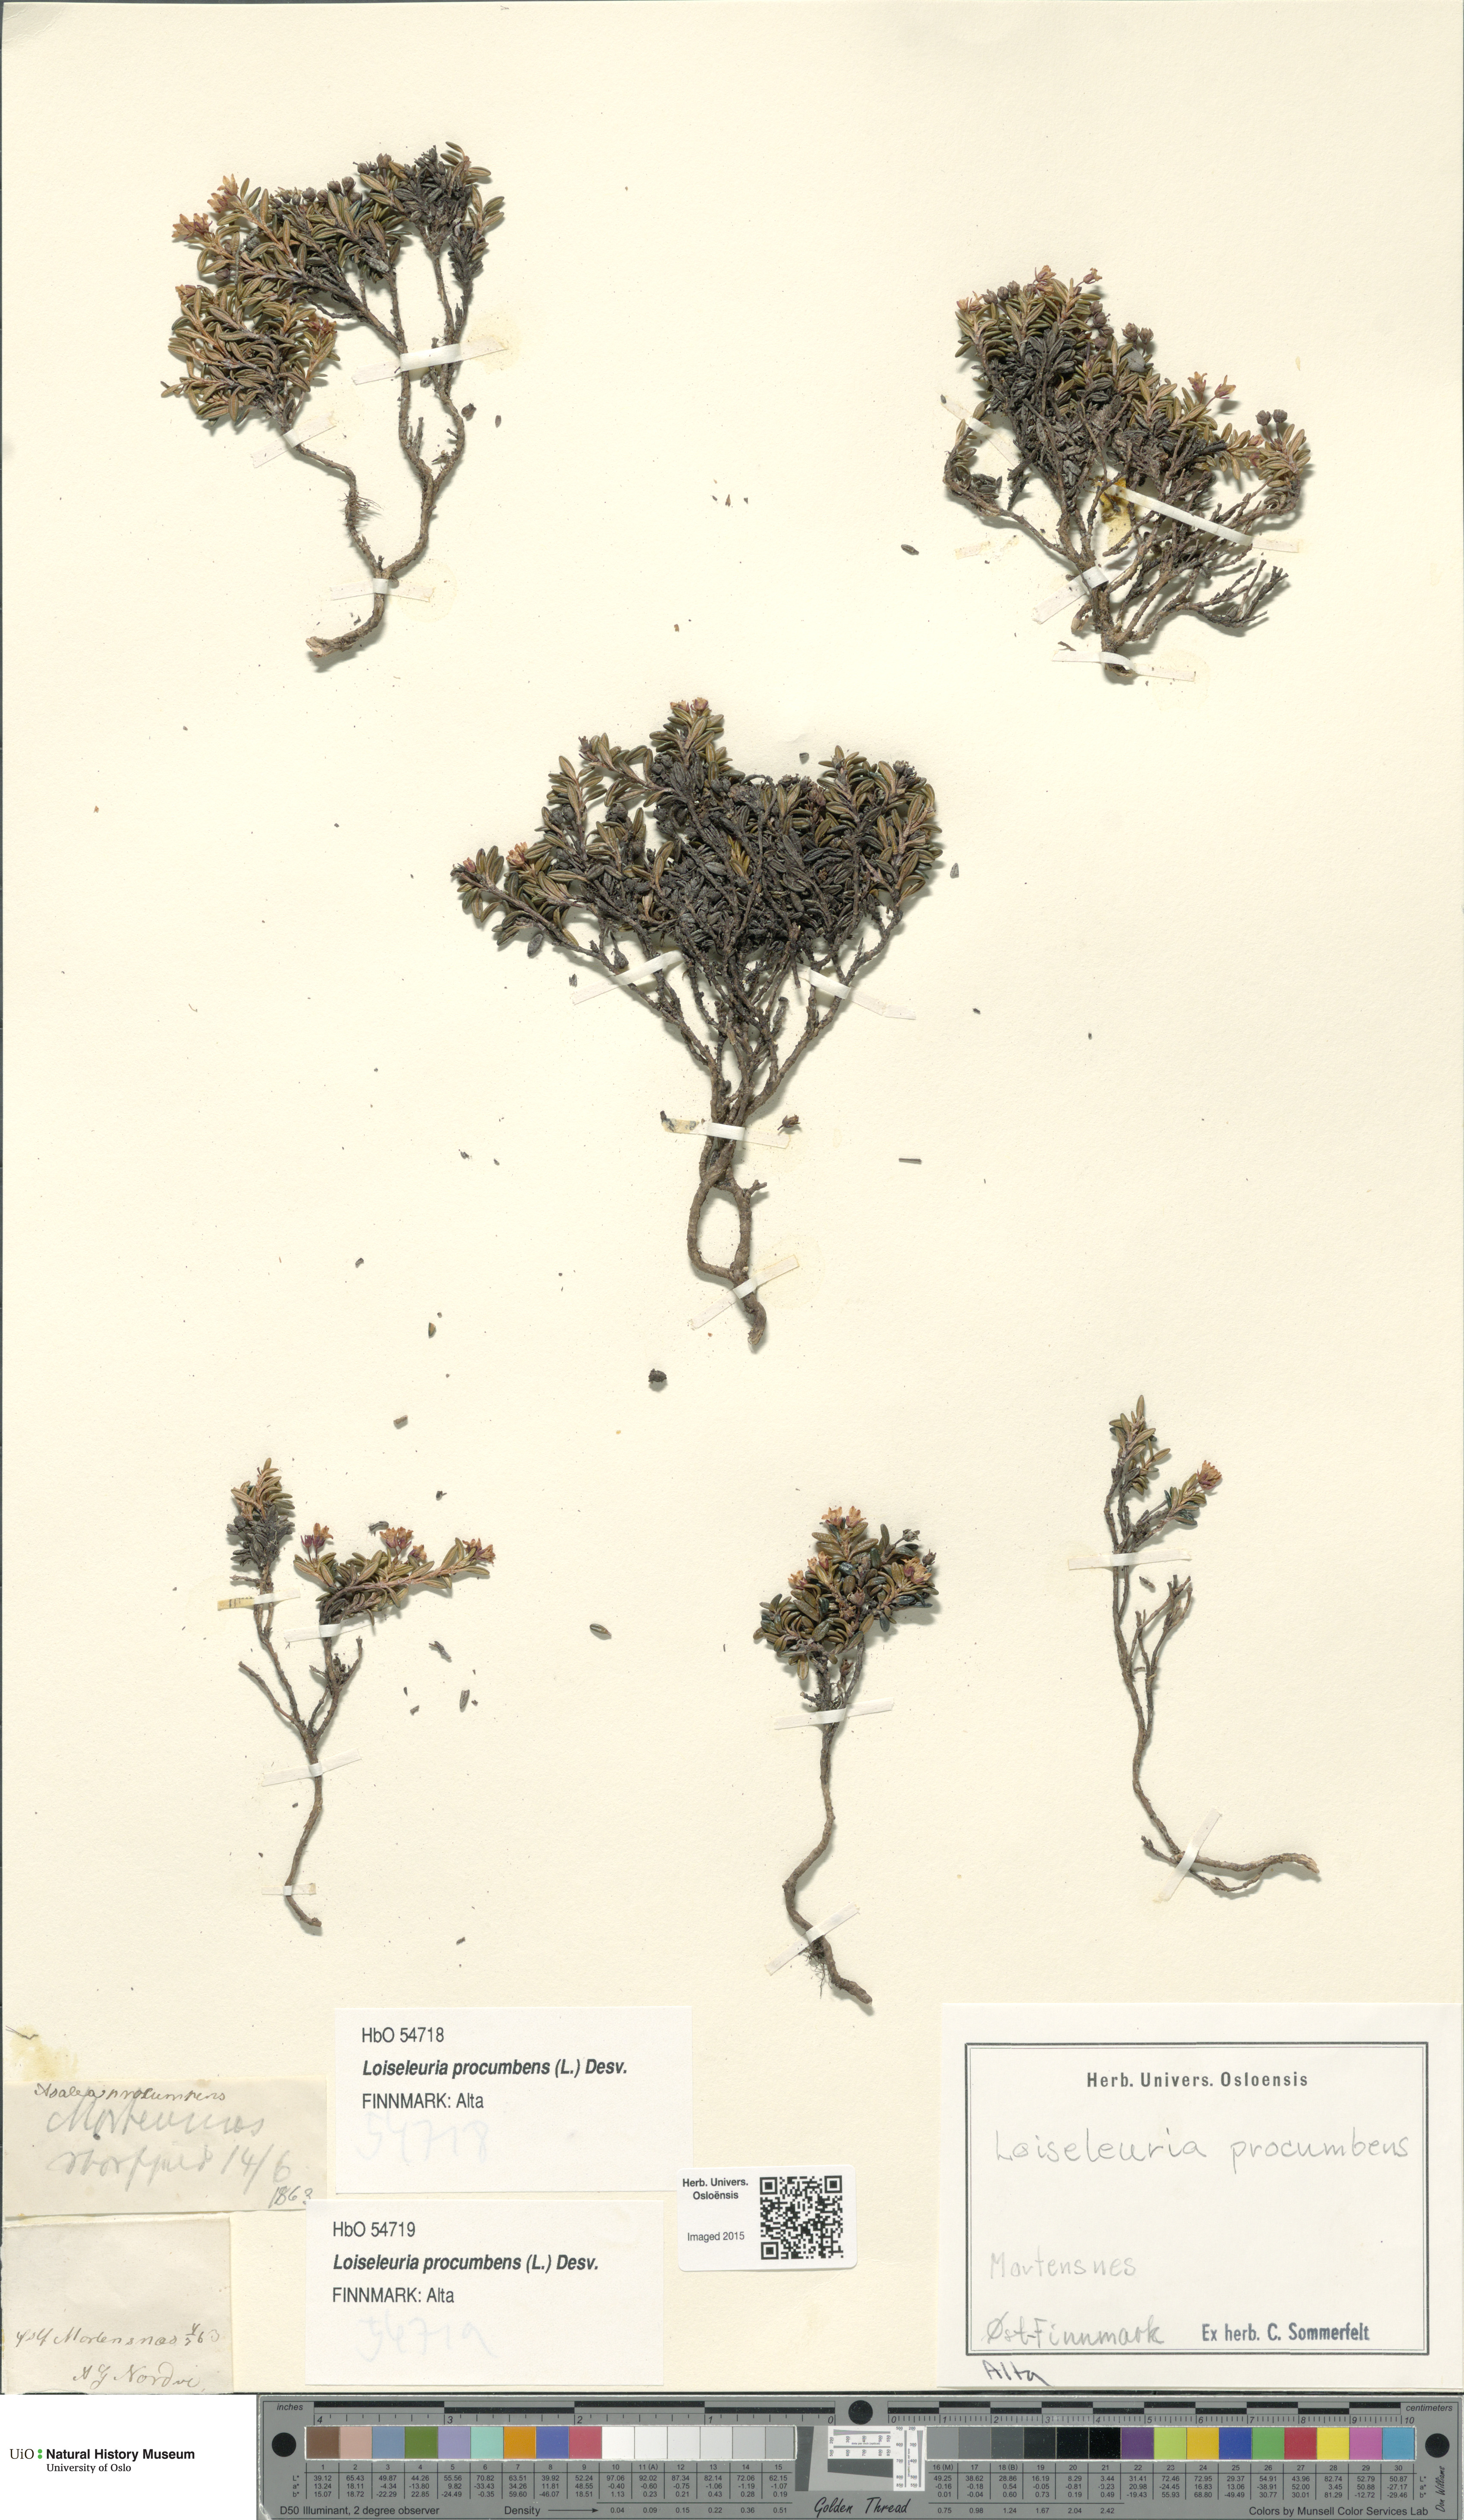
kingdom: Plantae
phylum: Tracheophyta
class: Magnoliopsida
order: Ericales
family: Ericaceae
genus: Kalmia
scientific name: Kalmia procumbens
